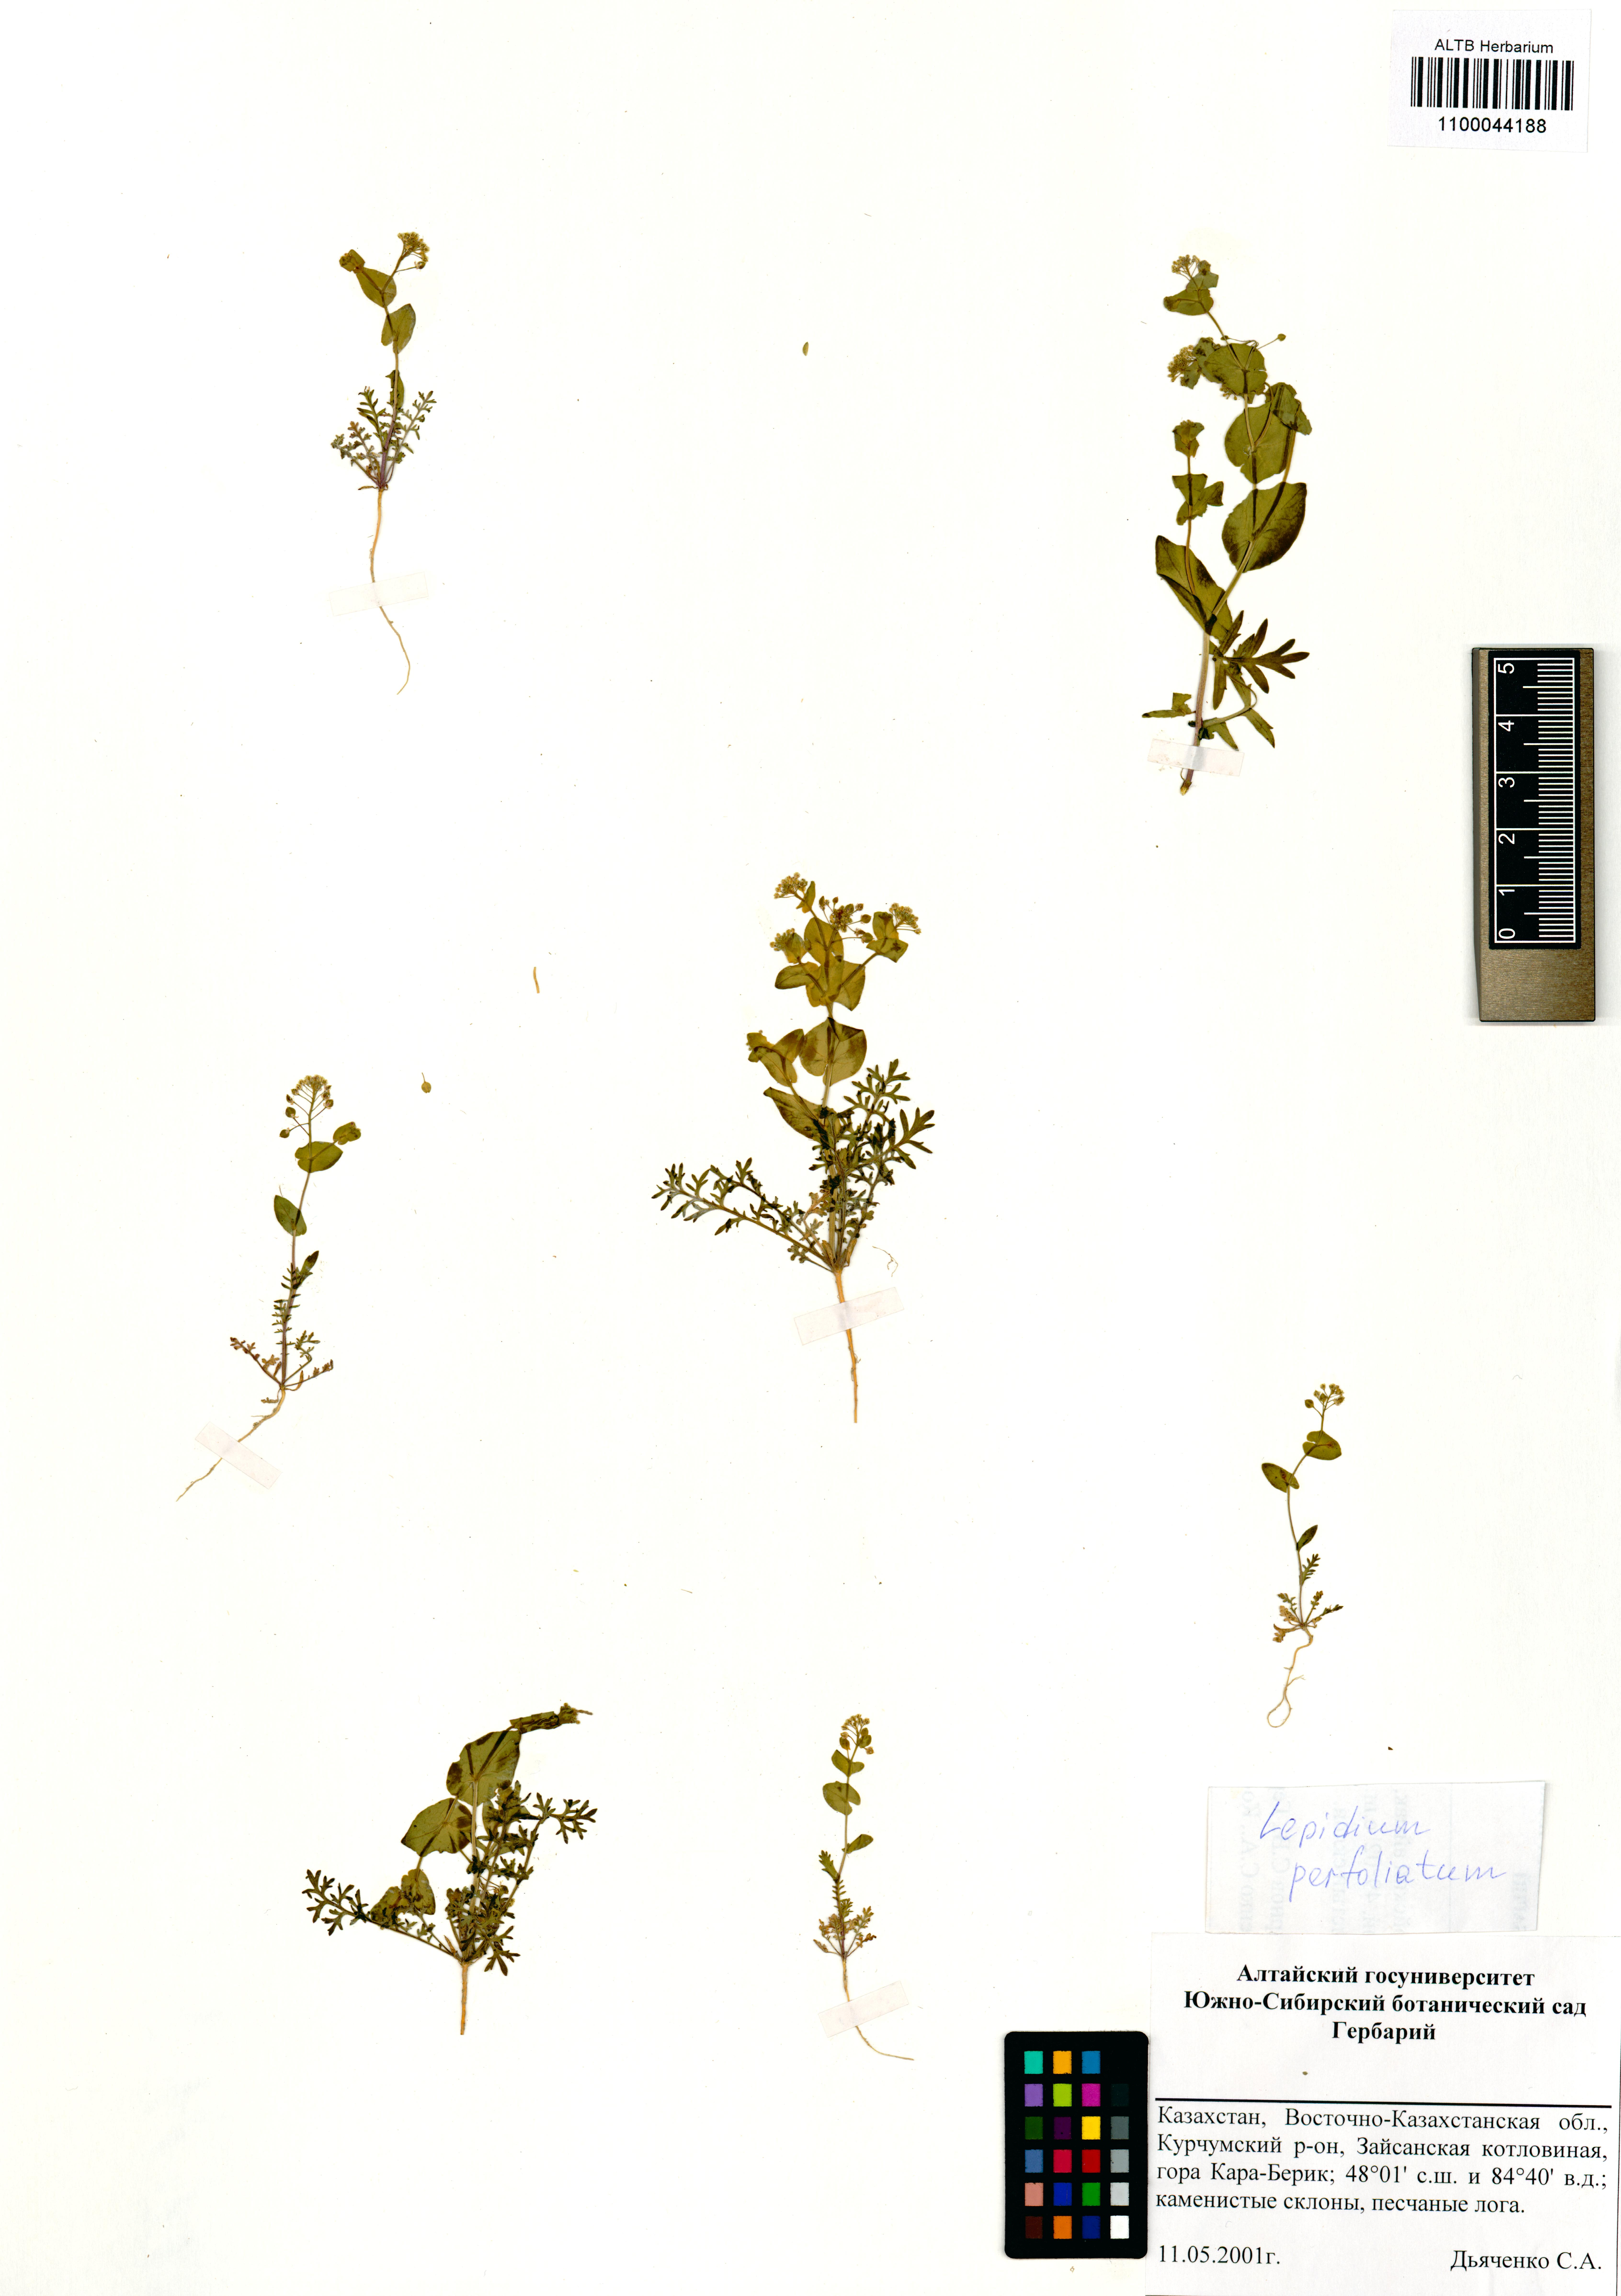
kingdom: Plantae
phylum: Tracheophyta
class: Magnoliopsida
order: Brassicales
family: Brassicaceae
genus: Lepidium
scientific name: Lepidium perfoliatum
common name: Perfoliate pepperwort
